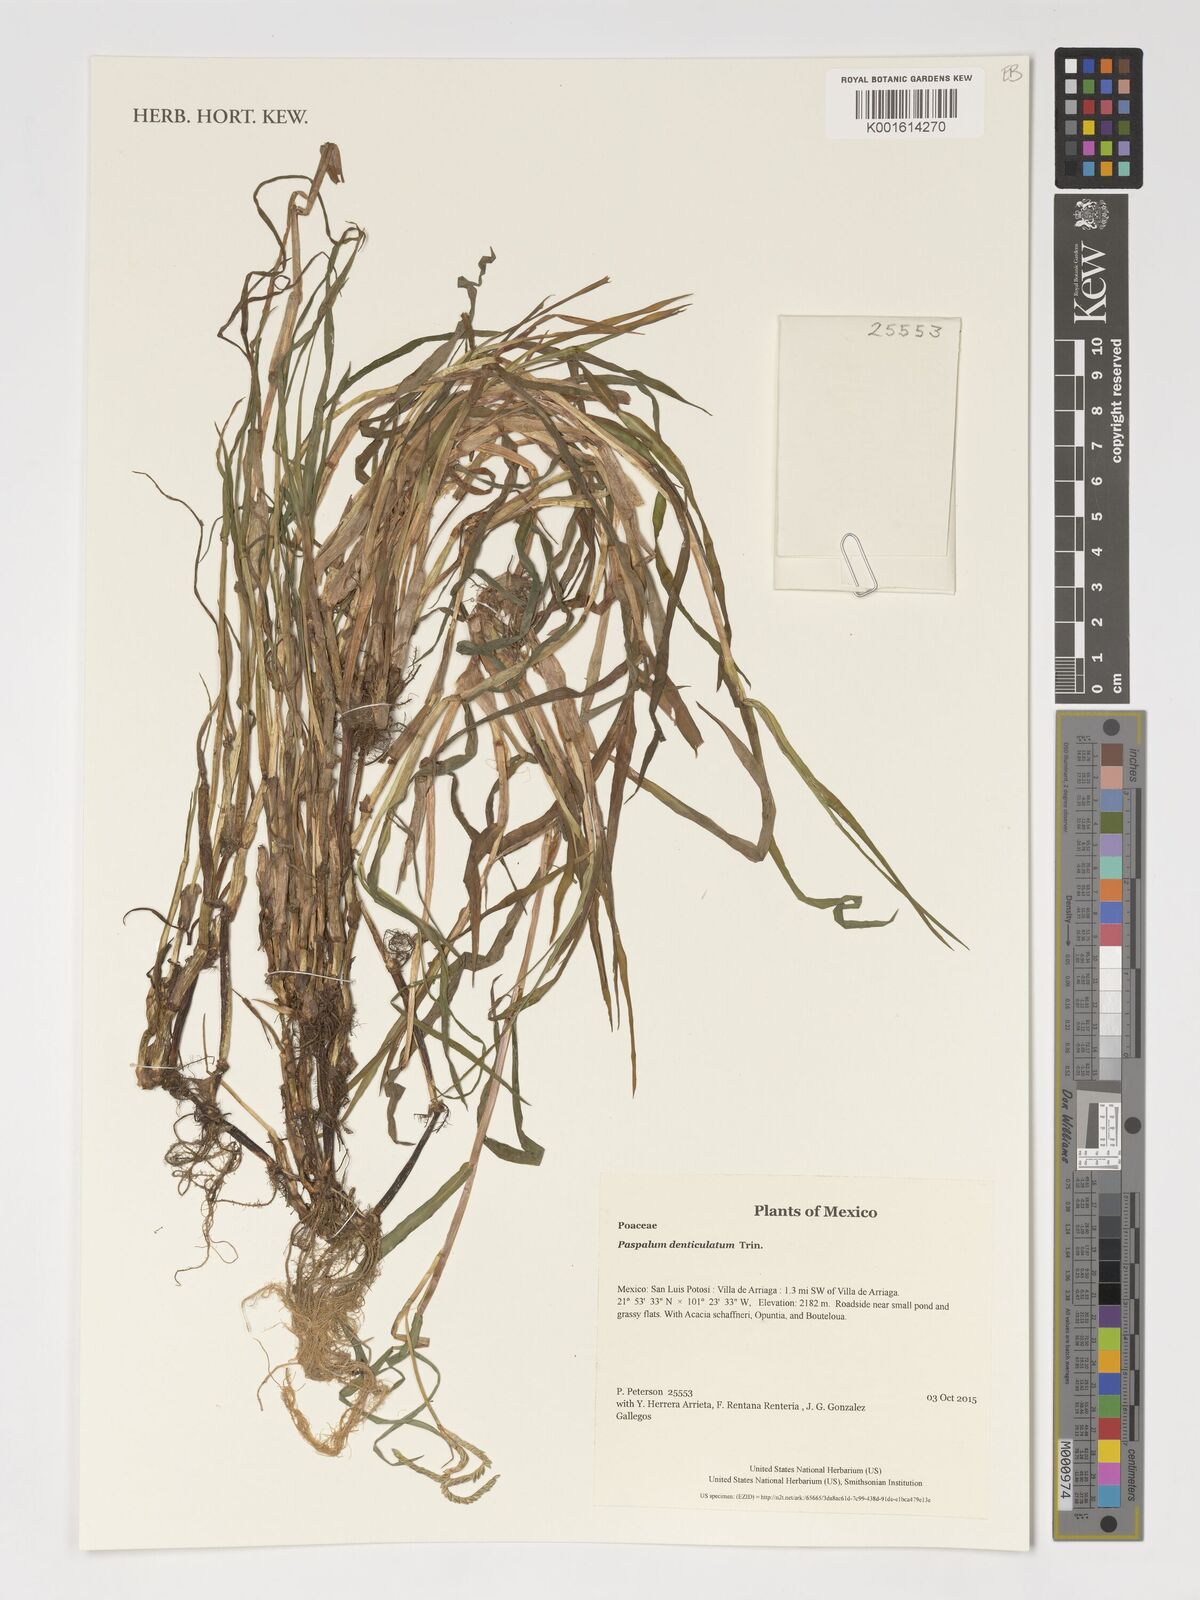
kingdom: Plantae
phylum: Tracheophyta
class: Liliopsida
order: Poales
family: Poaceae
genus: Paspalum
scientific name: Paspalum denticulatum
